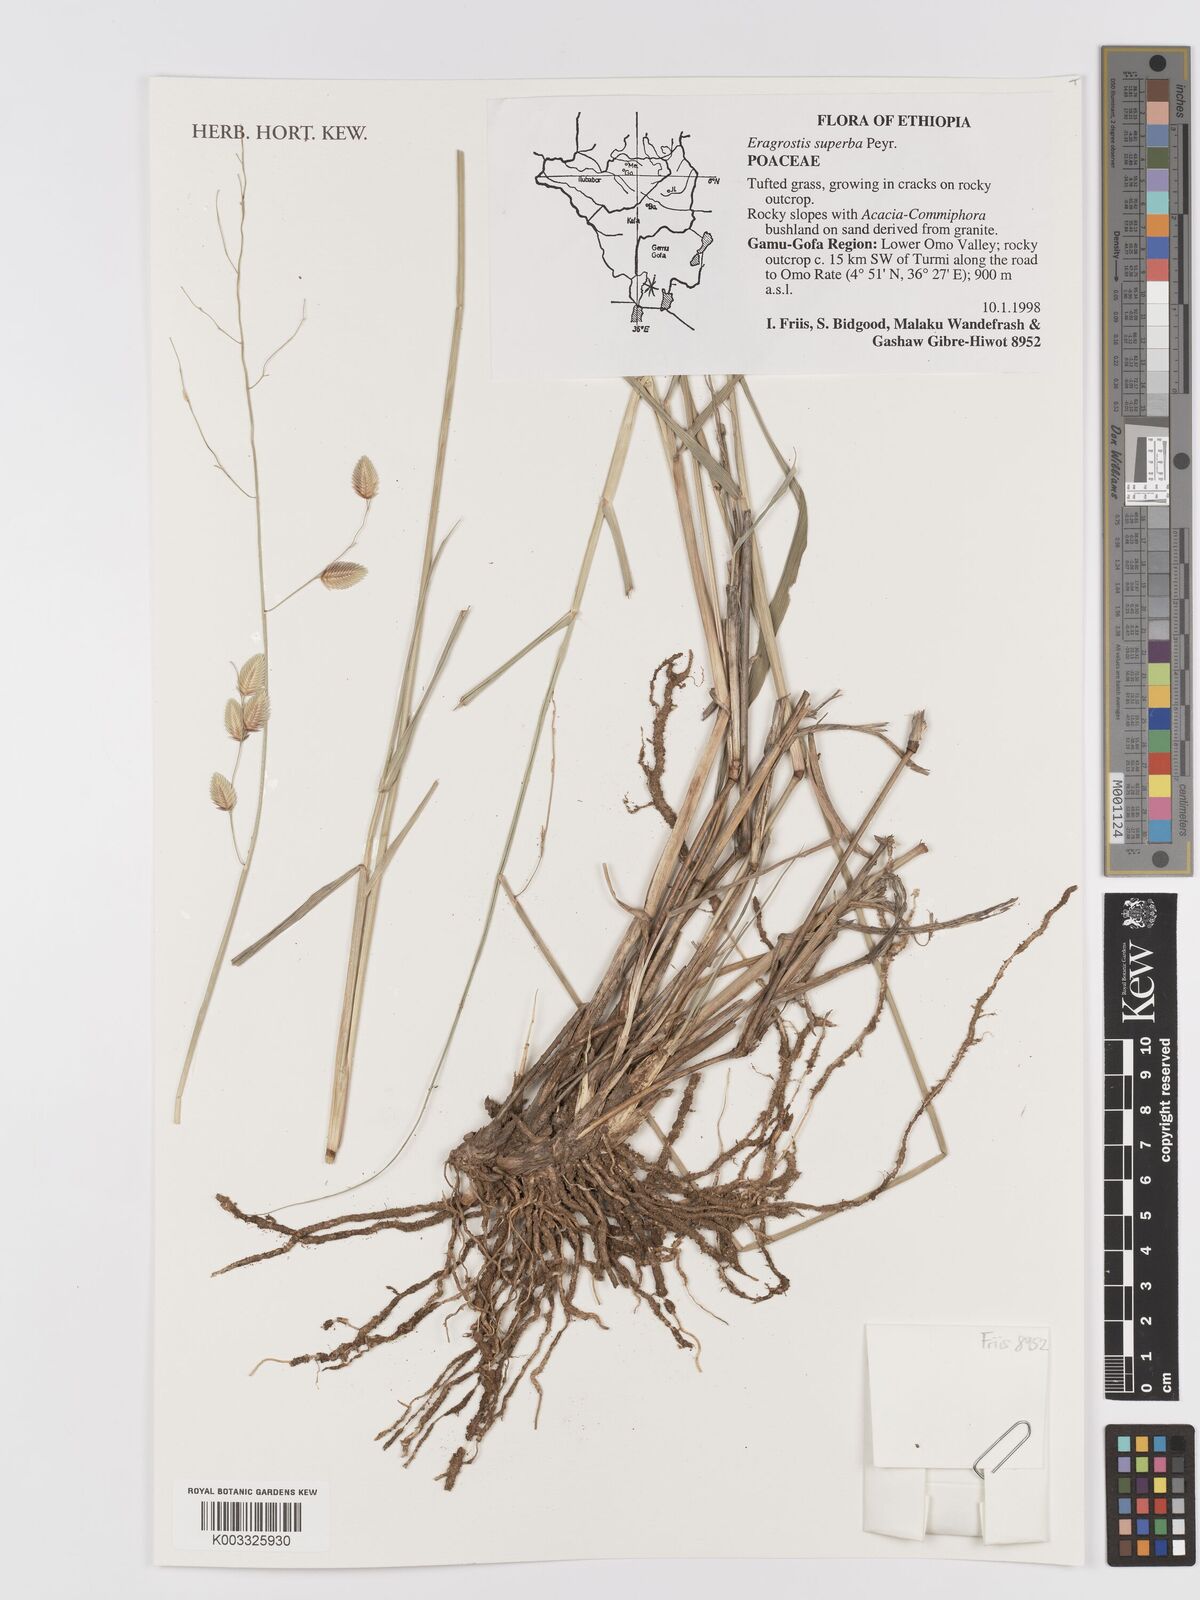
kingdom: Plantae
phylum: Tracheophyta
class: Liliopsida
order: Poales
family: Poaceae
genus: Eragrostis
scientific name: Eragrostis superba
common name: Wilman lovegrass
